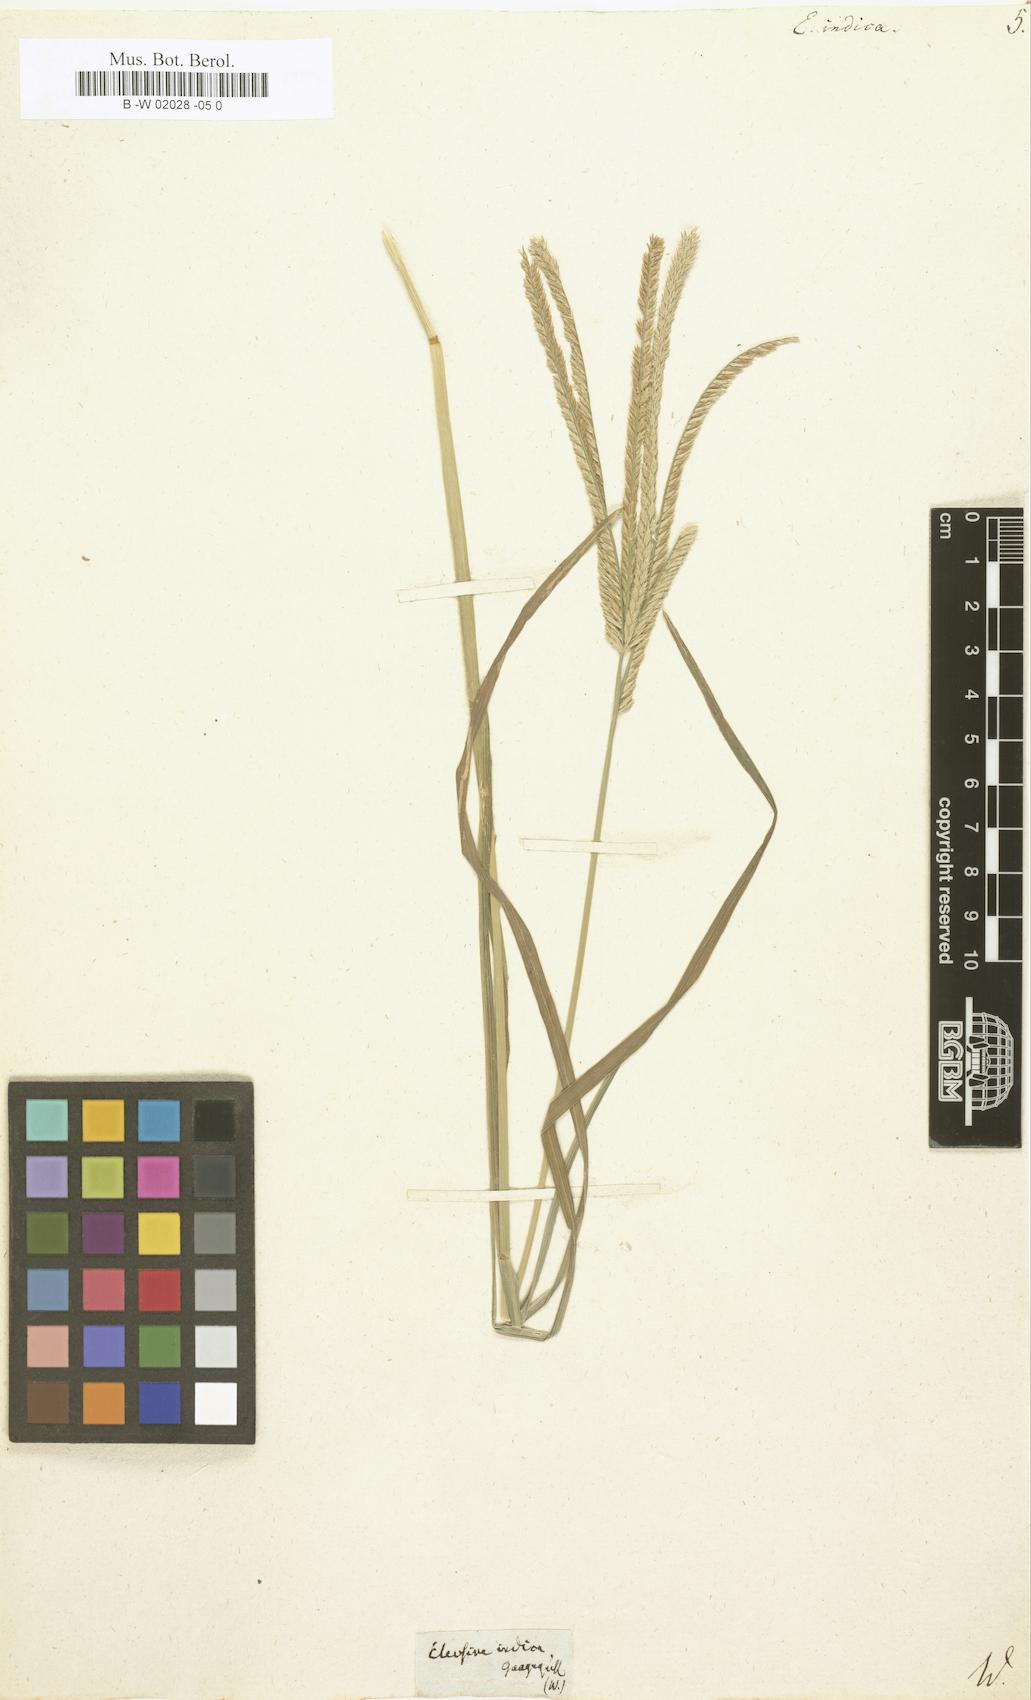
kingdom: Plantae
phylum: Tracheophyta
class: Liliopsida
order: Poales
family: Poaceae
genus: Eleusine
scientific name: Eleusine indica
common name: Yard-grass
